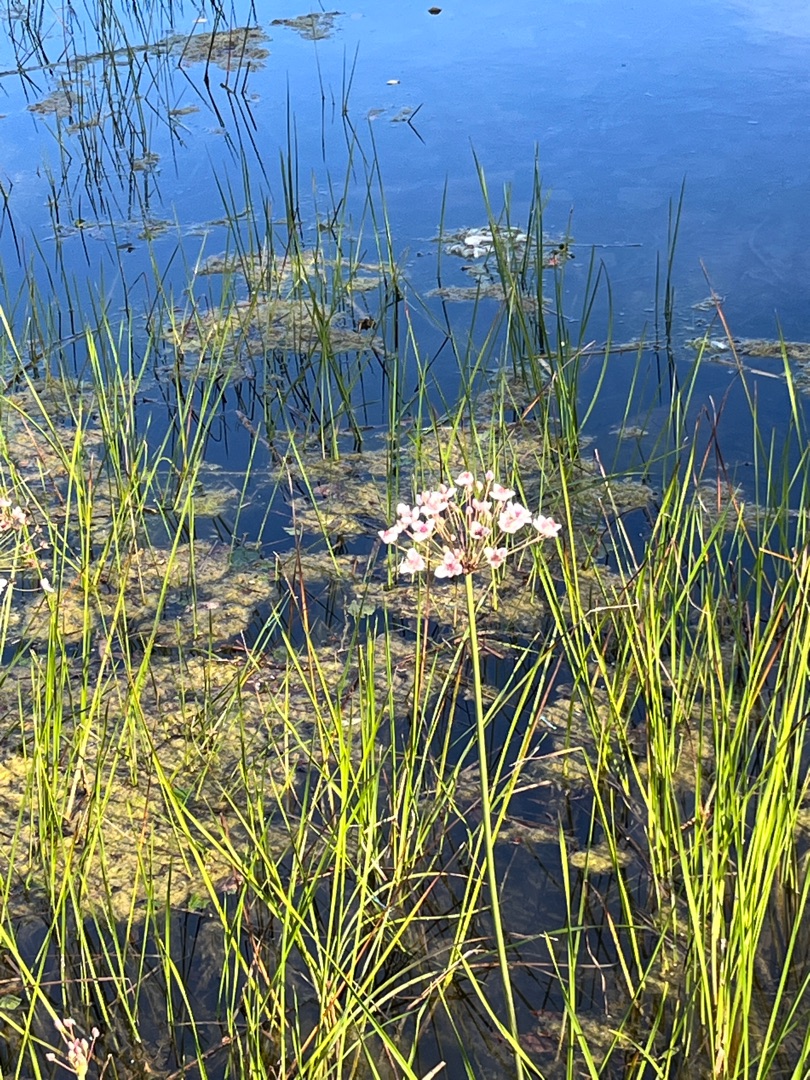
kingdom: Plantae
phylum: Tracheophyta
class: Liliopsida
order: Alismatales
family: Butomaceae
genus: Butomus
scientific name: Butomus umbellatus
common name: Brudelys
